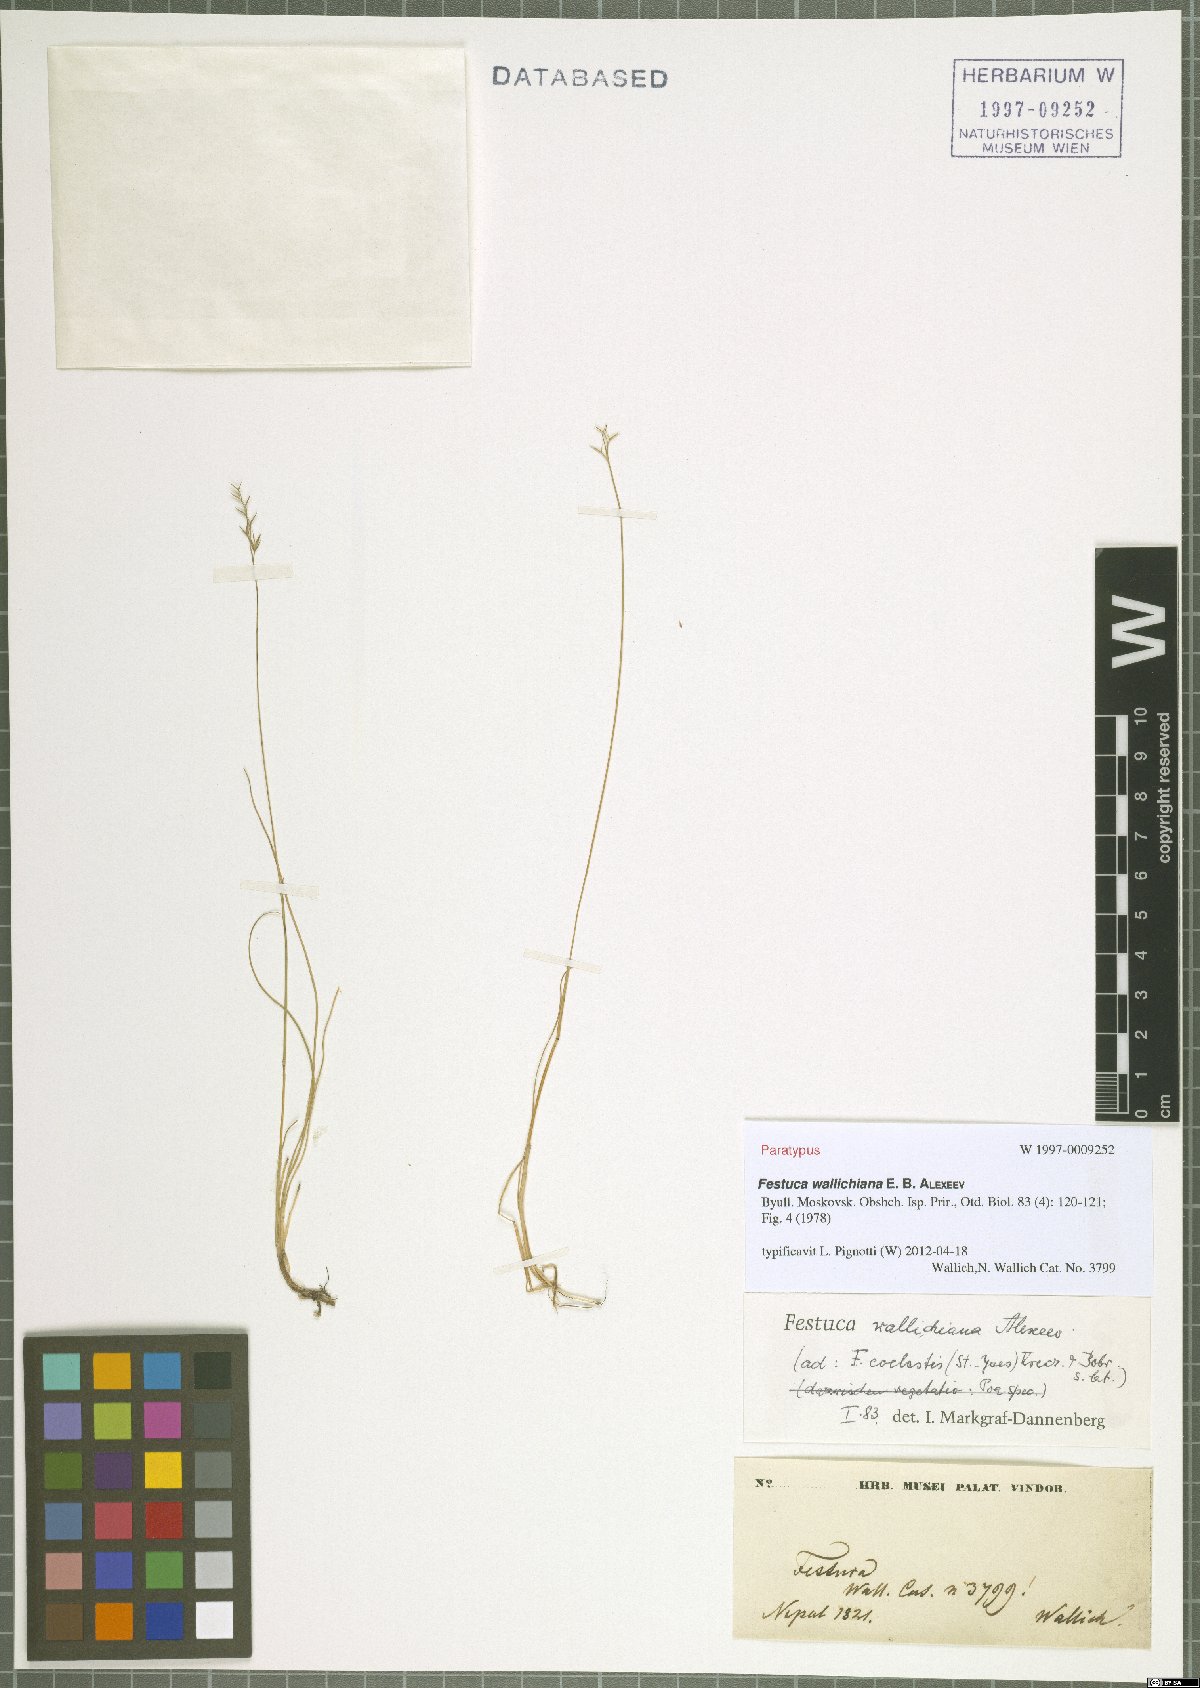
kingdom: Plantae
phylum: Tracheophyta
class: Liliopsida
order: Poales
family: Poaceae
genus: Festuca
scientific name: Festuca wallichiana
